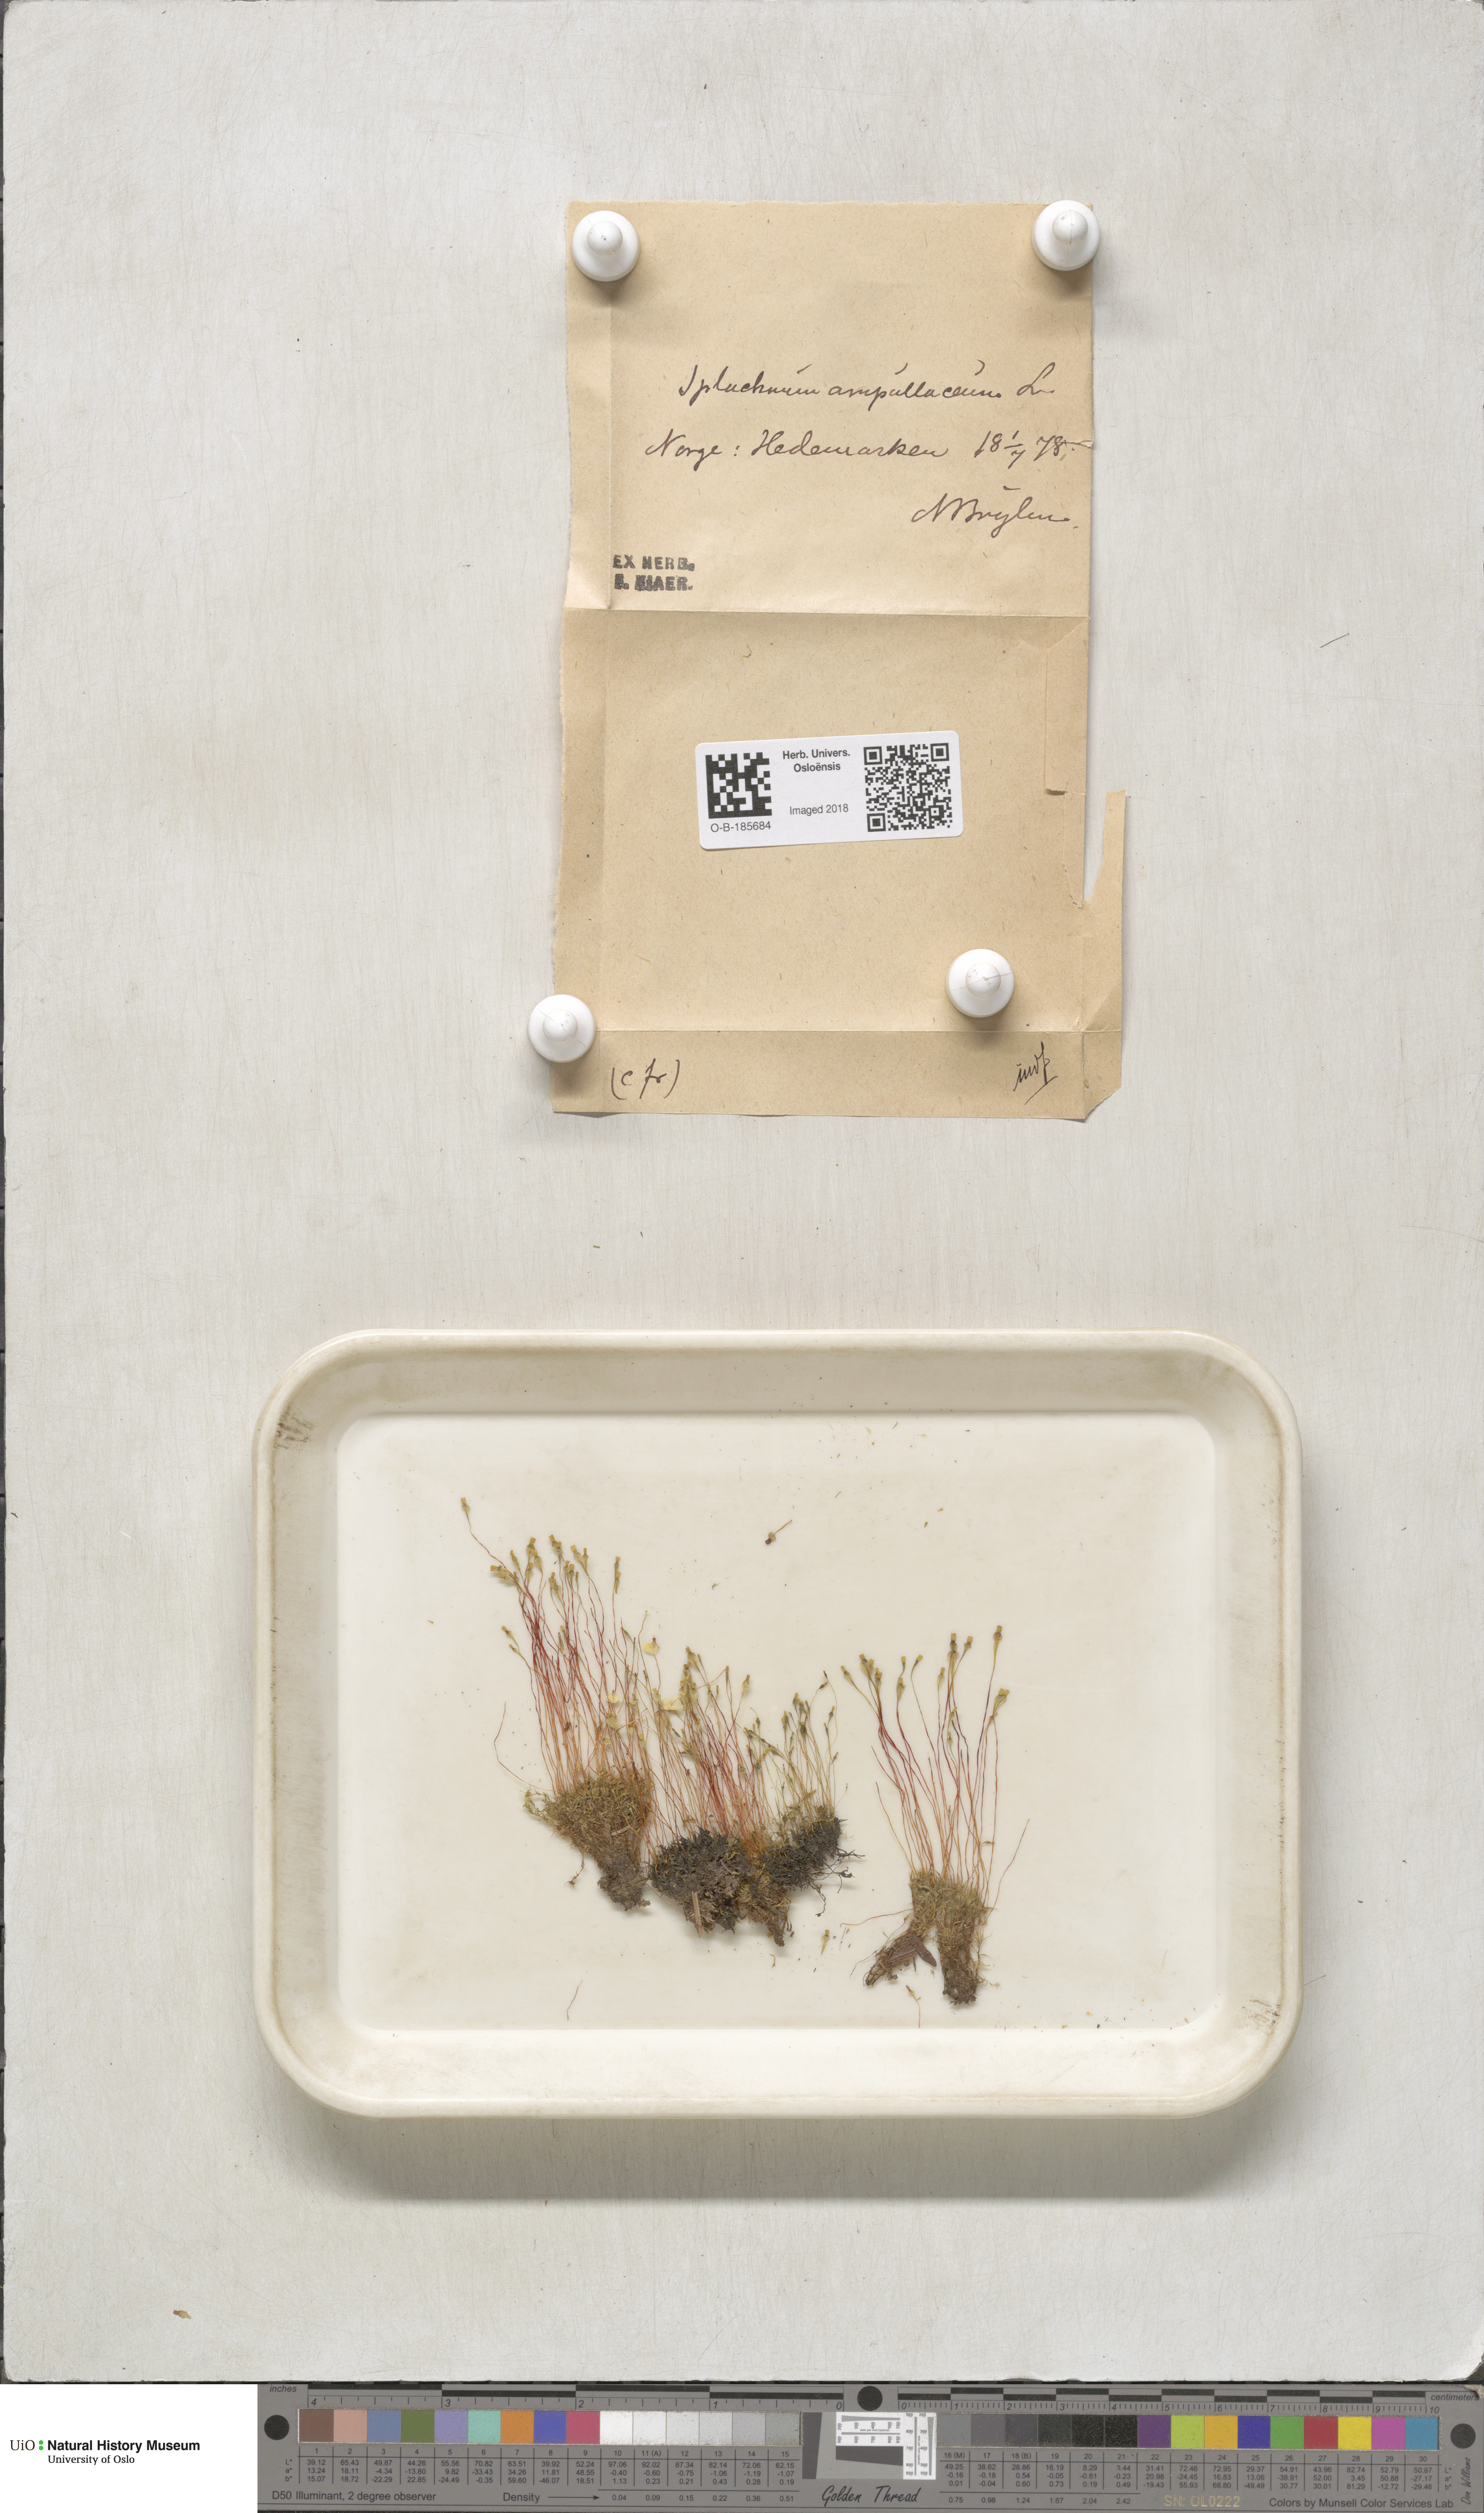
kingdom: Plantae
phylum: Bryophyta
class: Bryopsida
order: Splachnales
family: Splachnaceae
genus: Splachnum
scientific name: Splachnum ampullaceum
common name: Cruet dung moss
